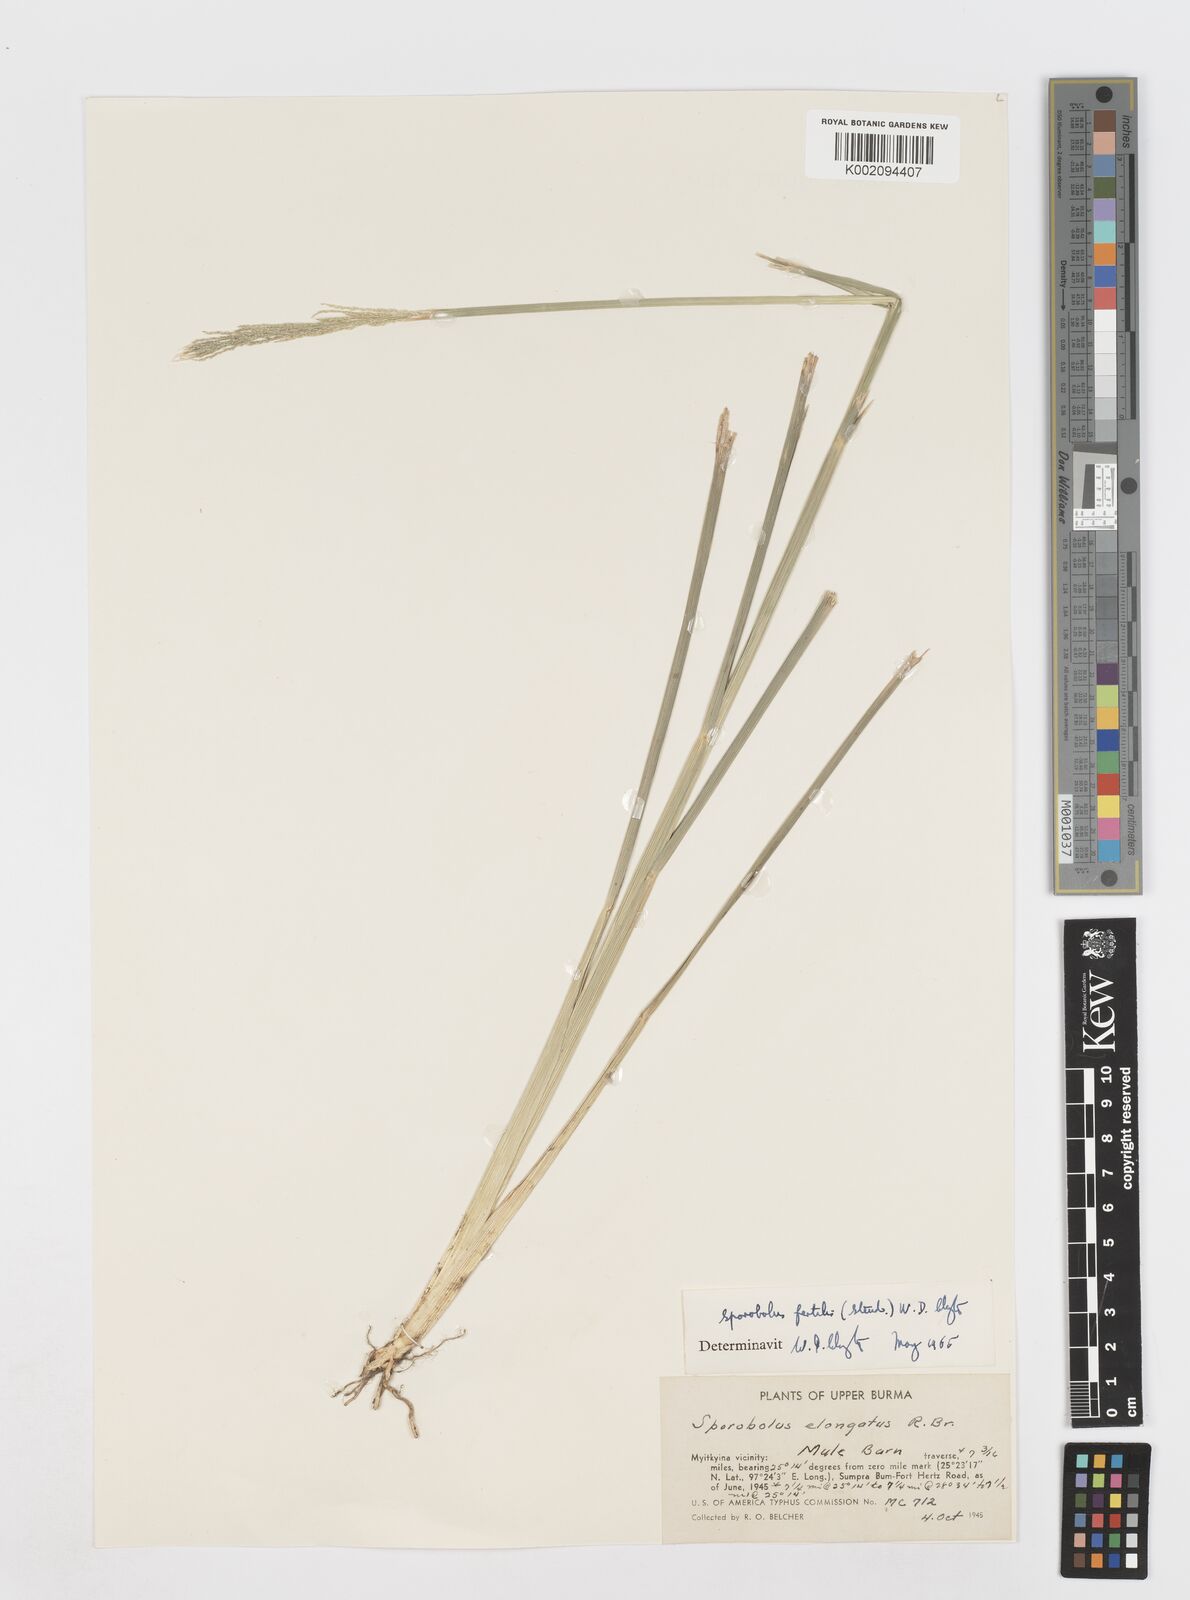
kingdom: Plantae
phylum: Tracheophyta
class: Liliopsida
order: Poales
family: Poaceae
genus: Sporobolus
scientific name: Sporobolus fertilis
